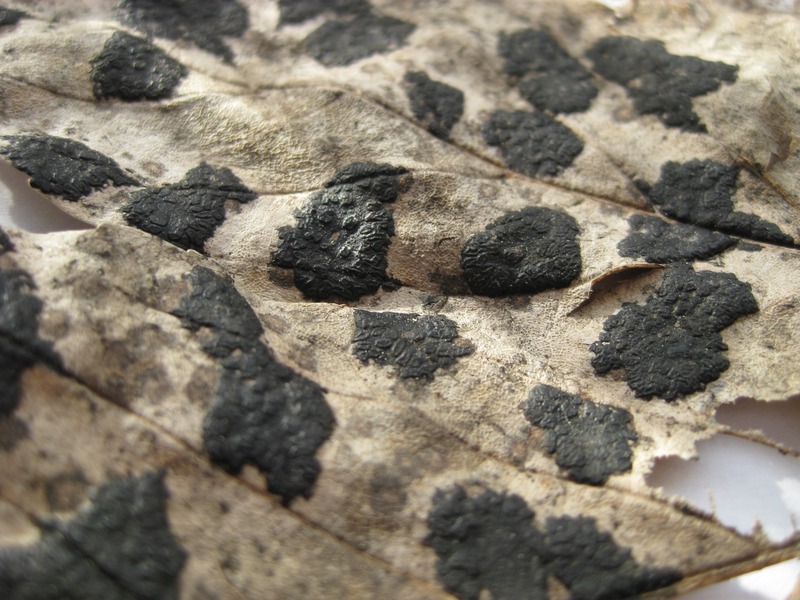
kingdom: Fungi
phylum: Ascomycota
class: Leotiomycetes
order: Rhytismatales
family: Rhytismataceae
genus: Rhytisma
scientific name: Rhytisma acerinum
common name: European tar spot
